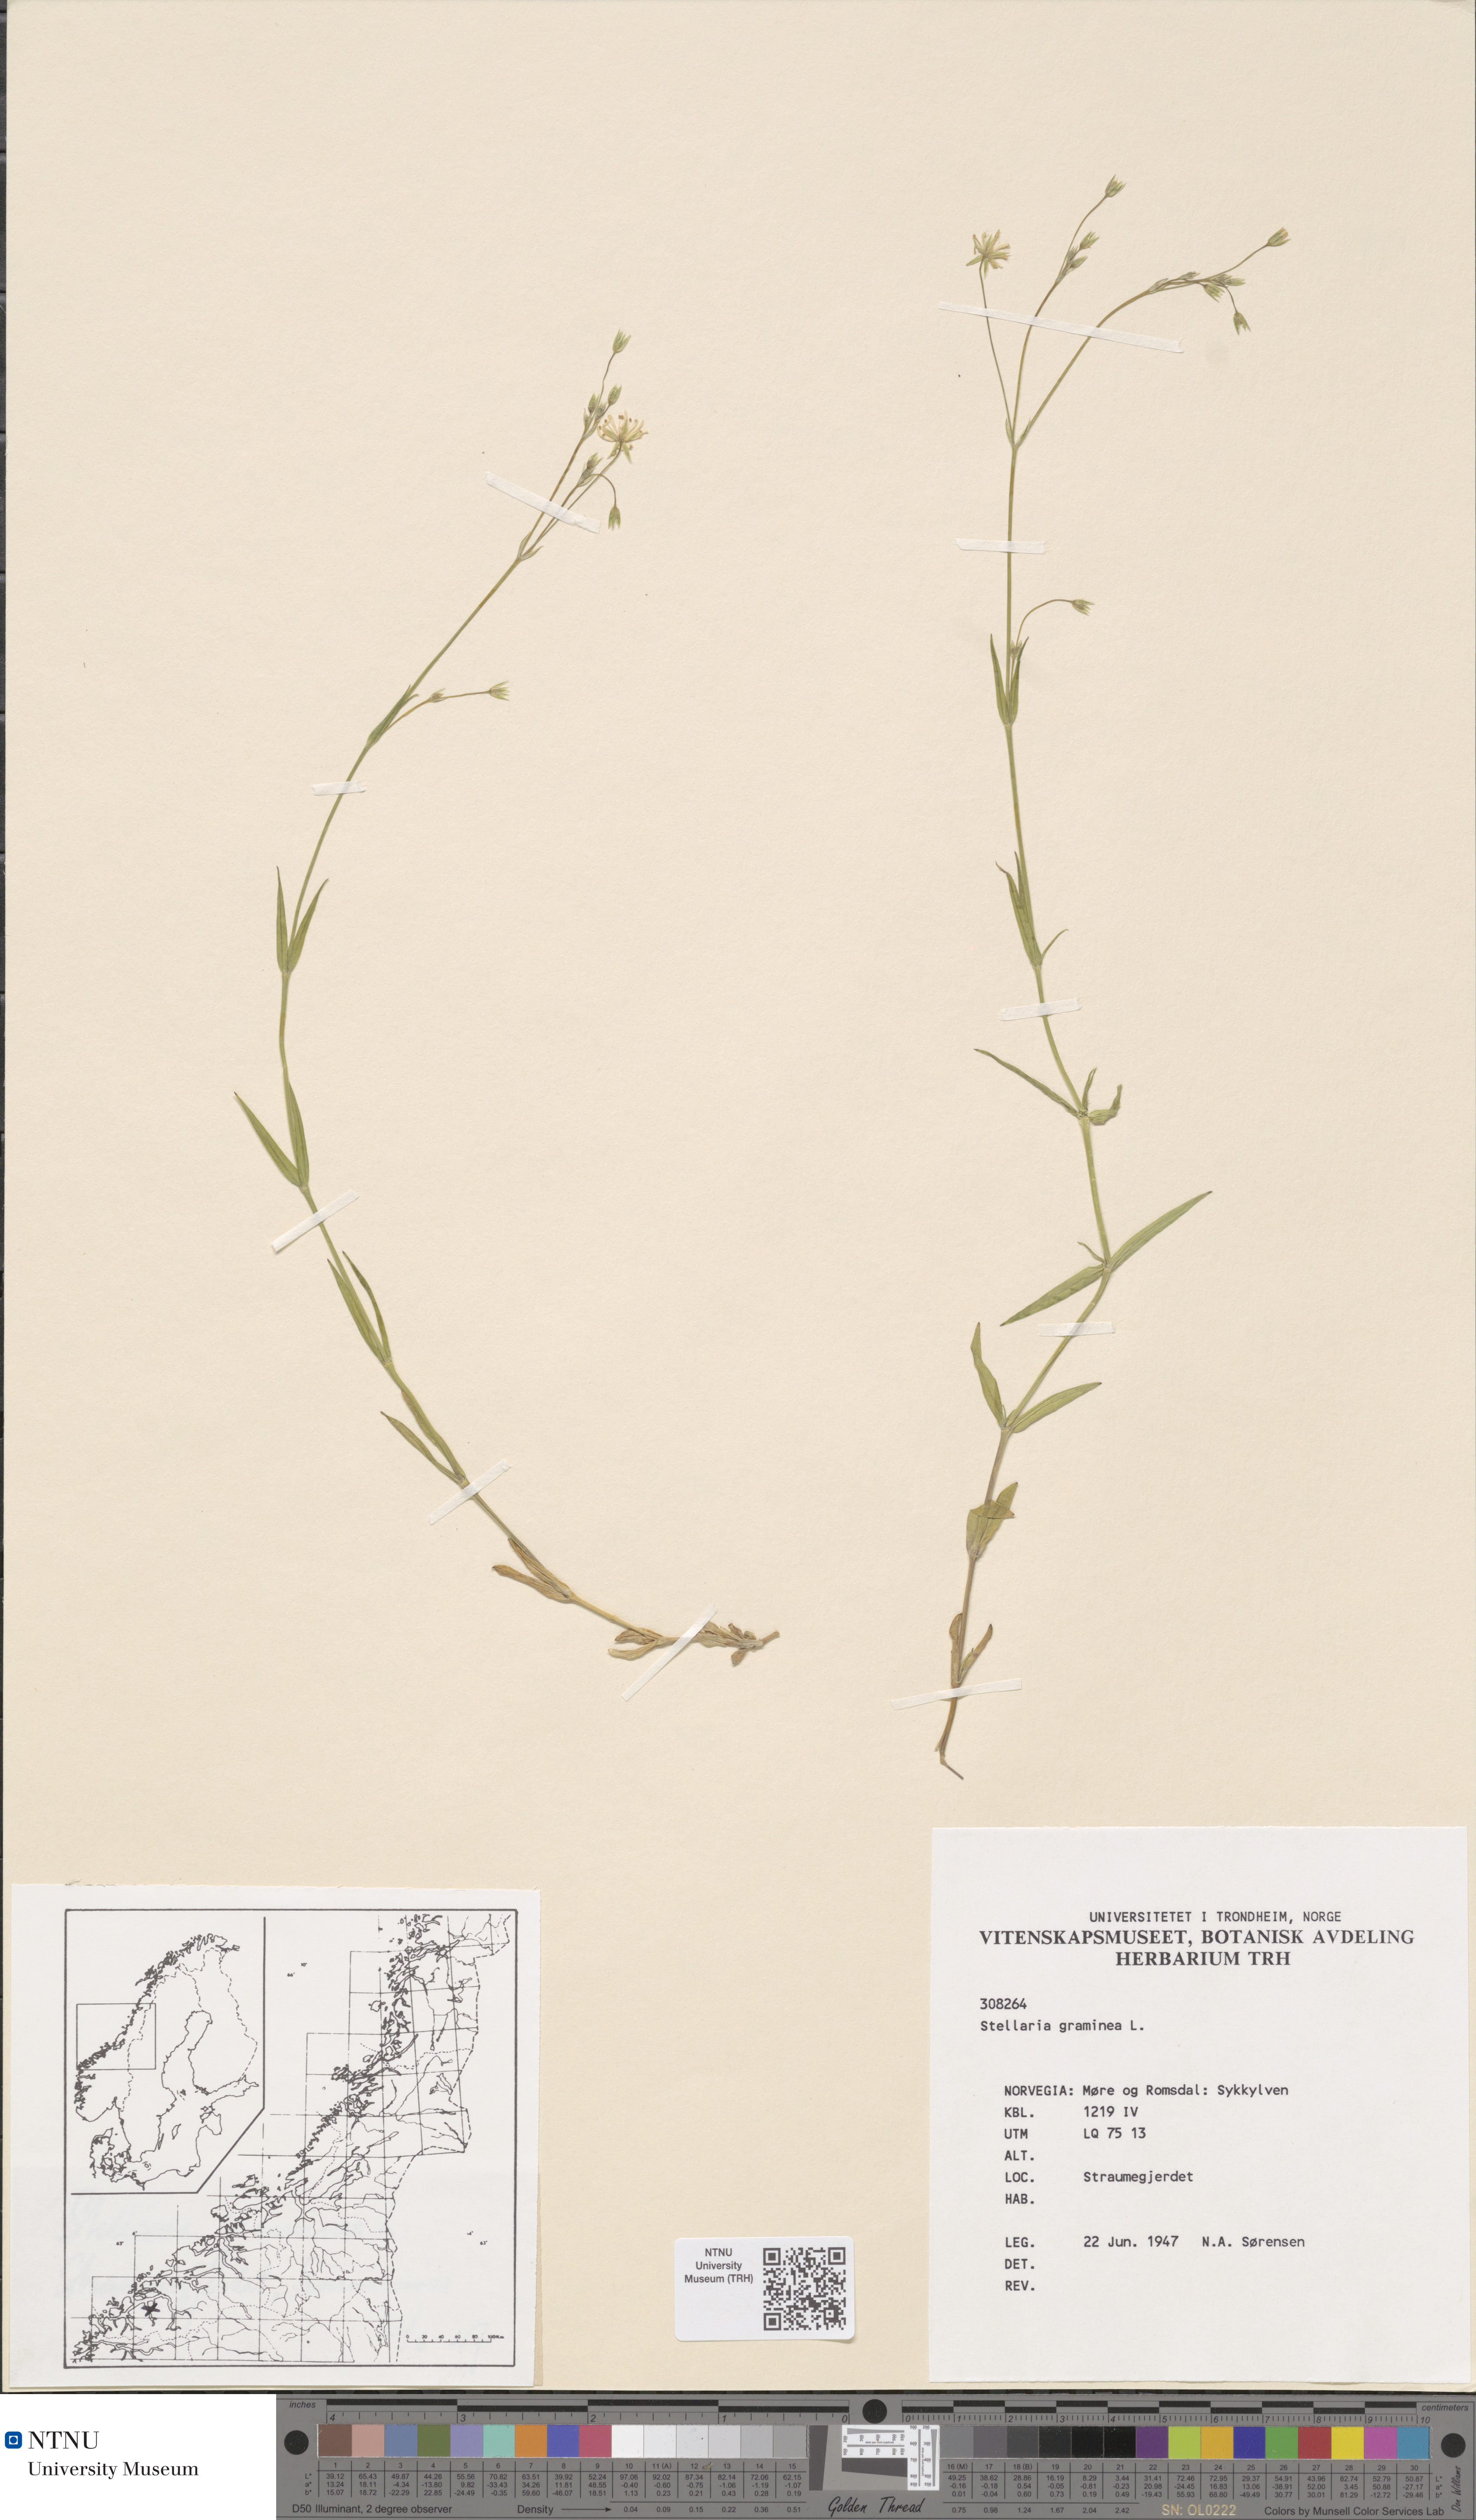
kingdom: Plantae
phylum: Tracheophyta
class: Magnoliopsida
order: Caryophyllales
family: Caryophyllaceae
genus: Stellaria
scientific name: Stellaria graminea
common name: Grass-like starwort
